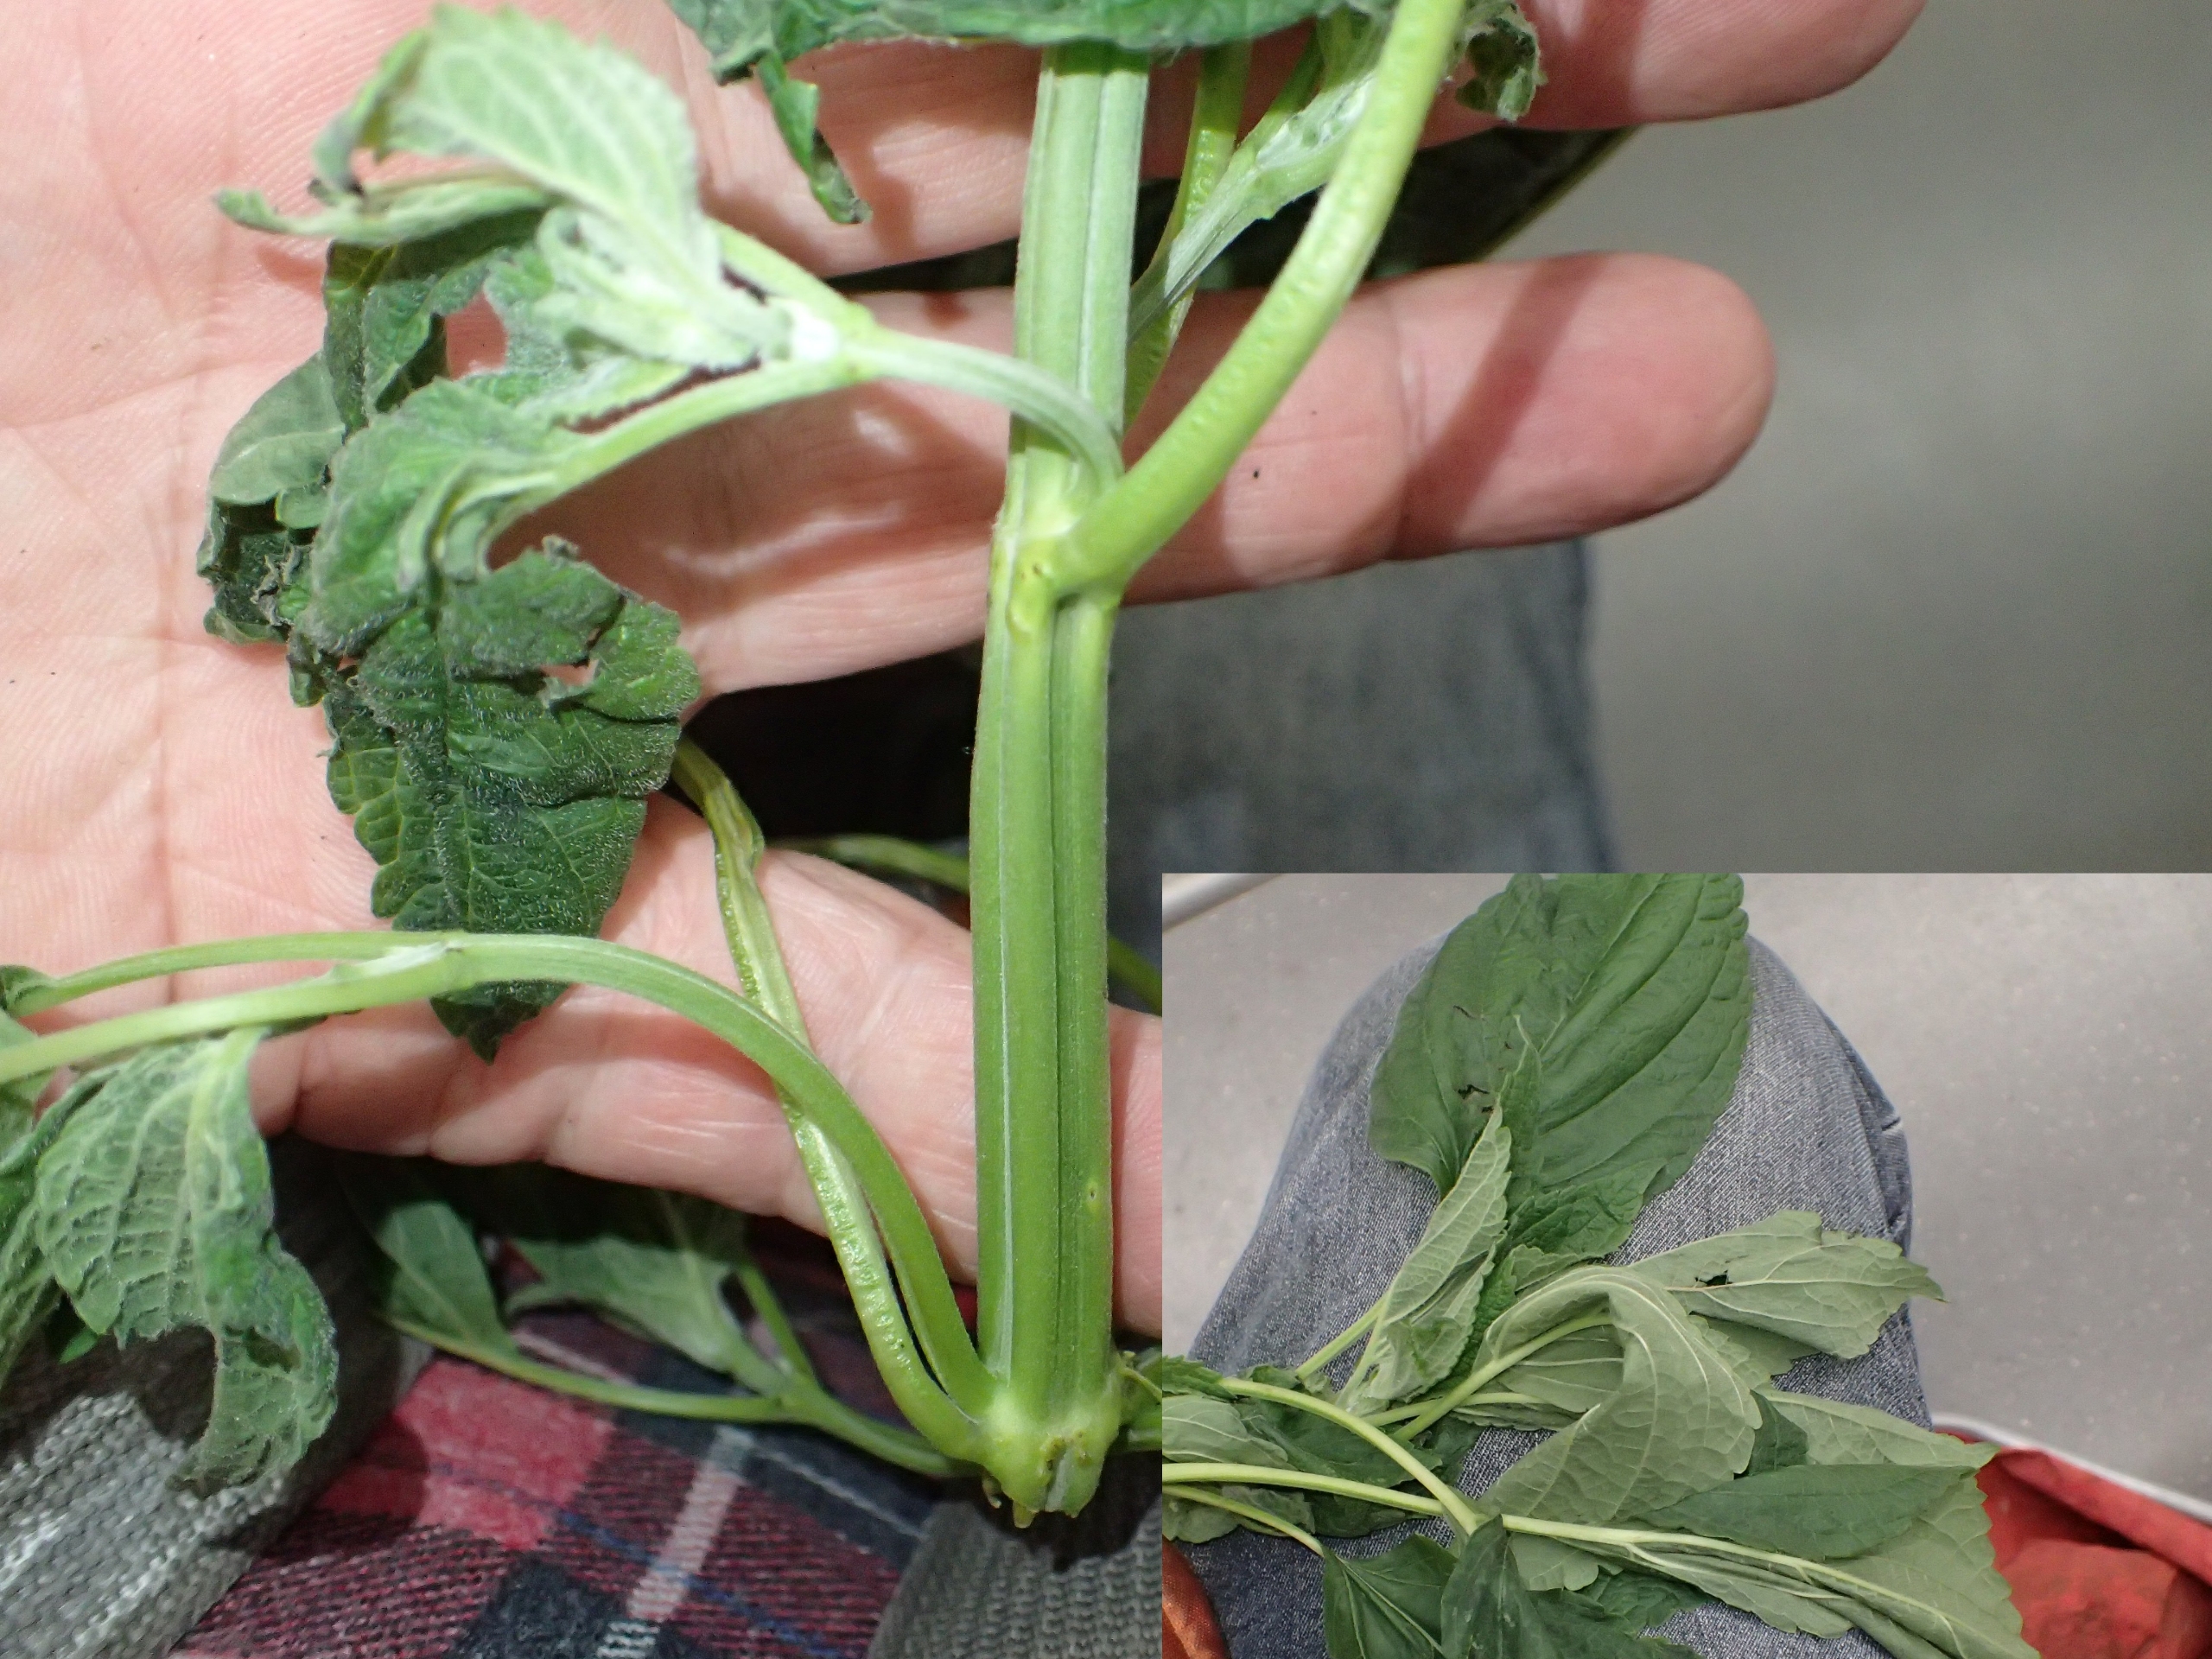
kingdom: Plantae
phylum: Tracheophyta
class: Magnoliopsida
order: Lamiales
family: Lamiaceae
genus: Salvia
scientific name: Salvia hispanica
